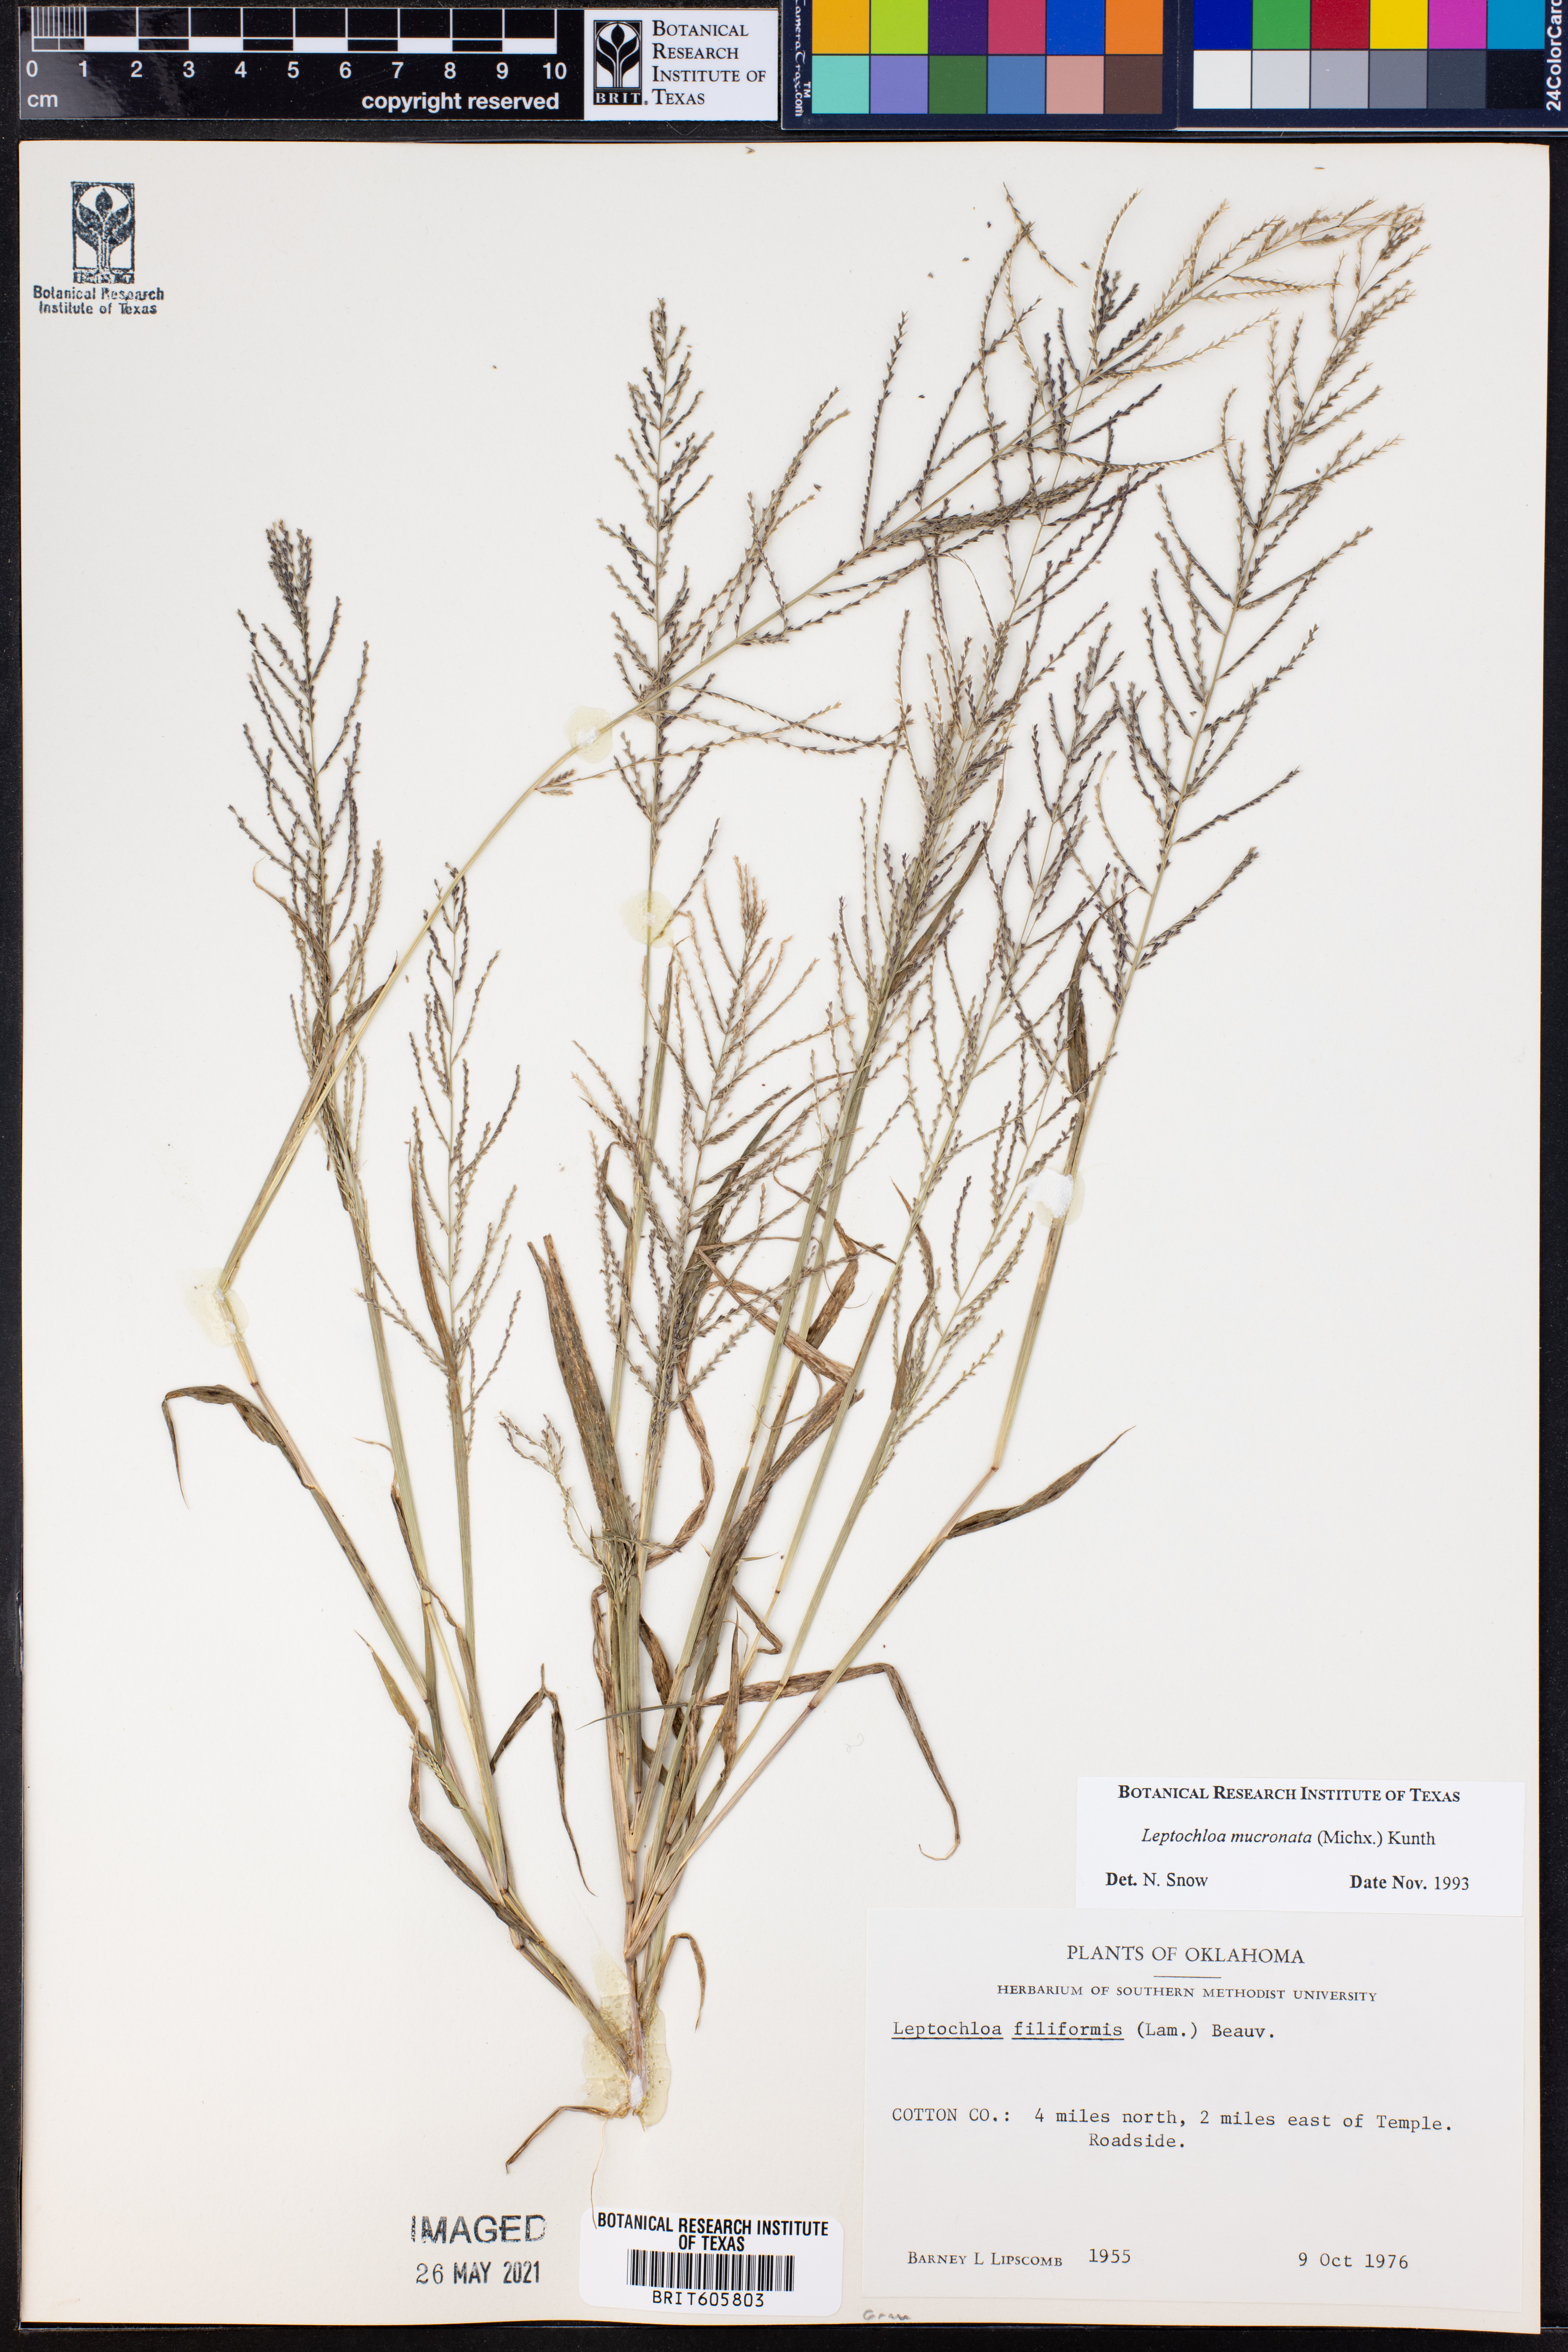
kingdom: Plantae
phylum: Tracheophyta
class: Liliopsida
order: Poales
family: Poaceae
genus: Leptochloa
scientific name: Leptochloa mucronata
